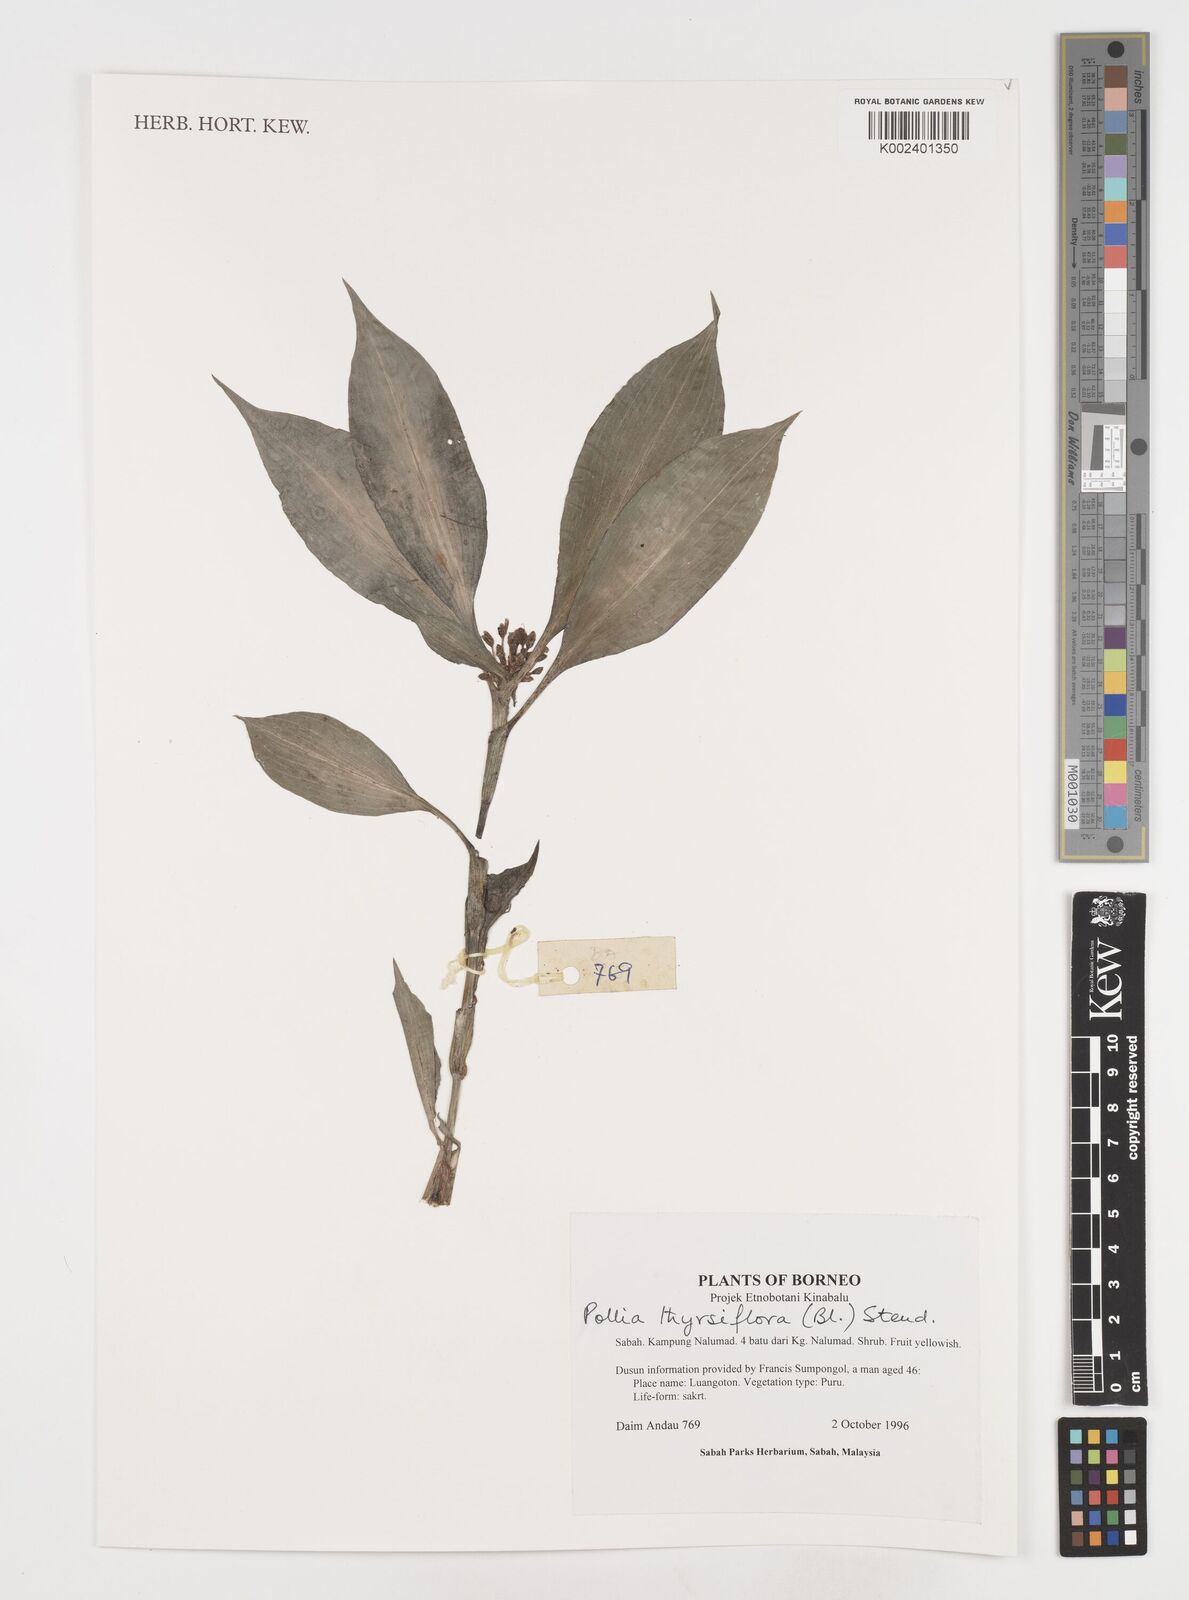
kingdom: Plantae
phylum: Tracheophyta
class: Liliopsida
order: Commelinales
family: Commelinaceae
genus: Pollia
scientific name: Pollia thyrsiflora
